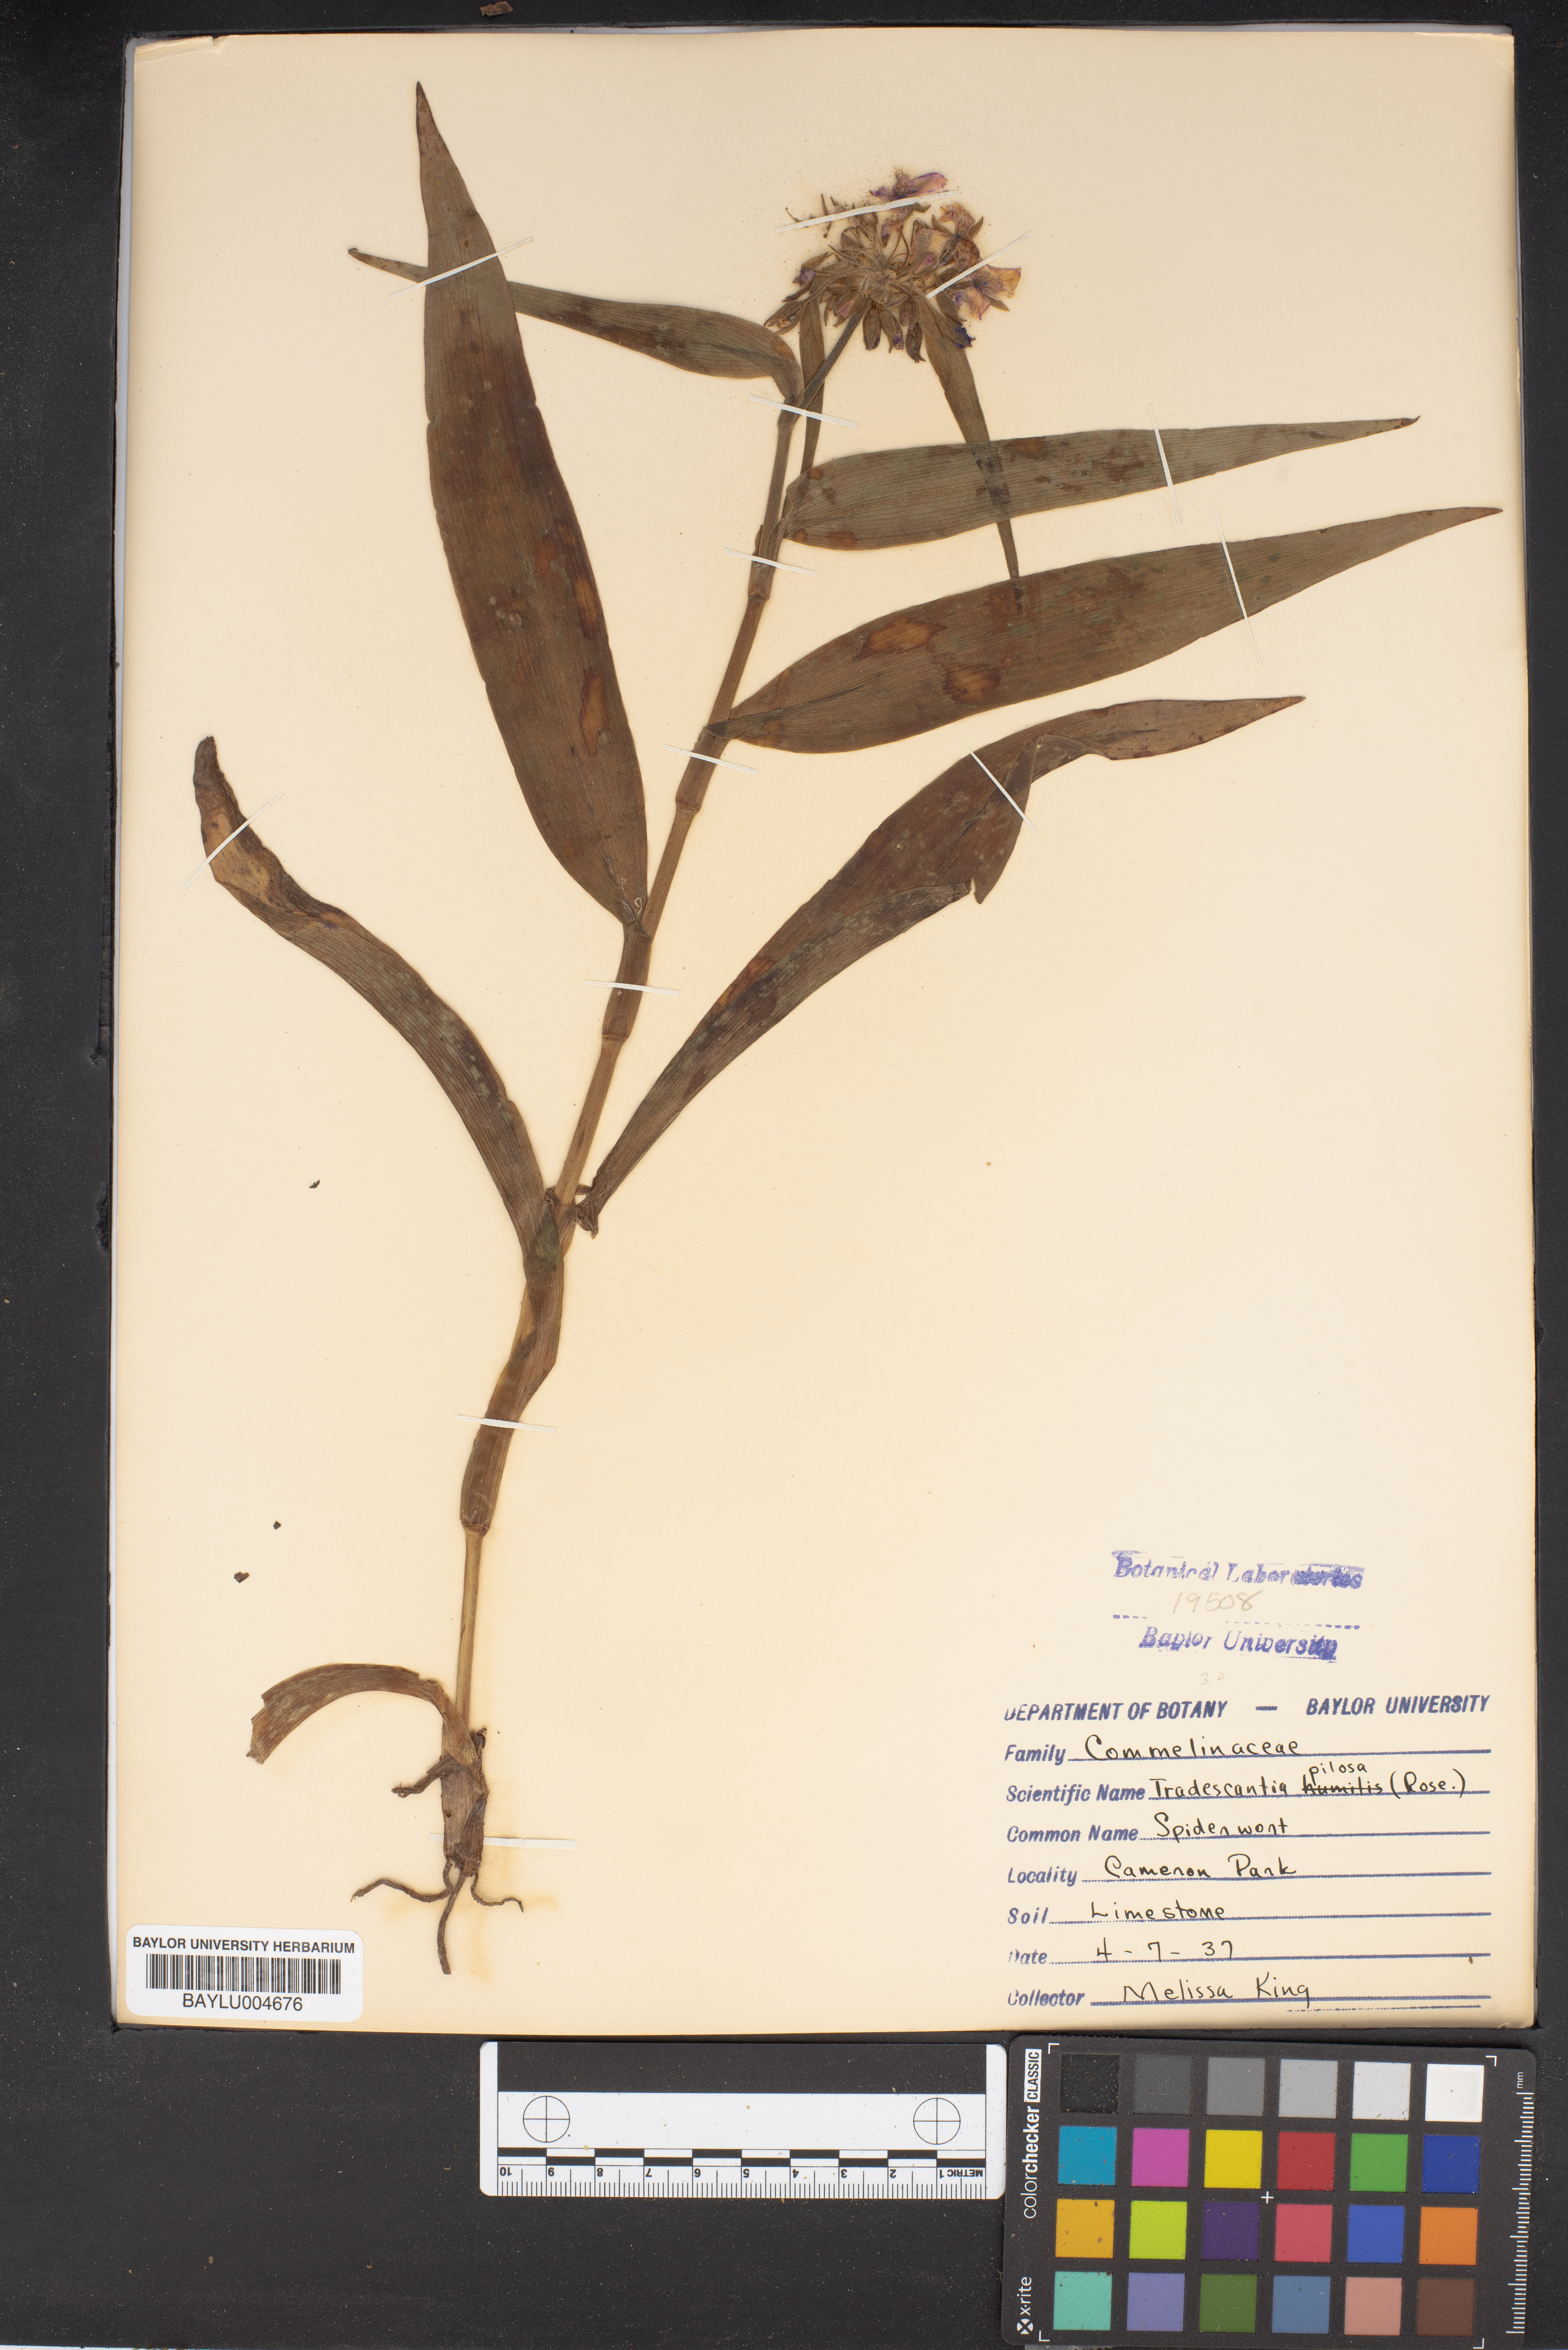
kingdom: Plantae
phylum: Tracheophyta
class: Liliopsida
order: Commelinales
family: Commelinaceae
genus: Tradescantia
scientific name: Tradescantia subaspera
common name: Wide-leaf spiderwort
